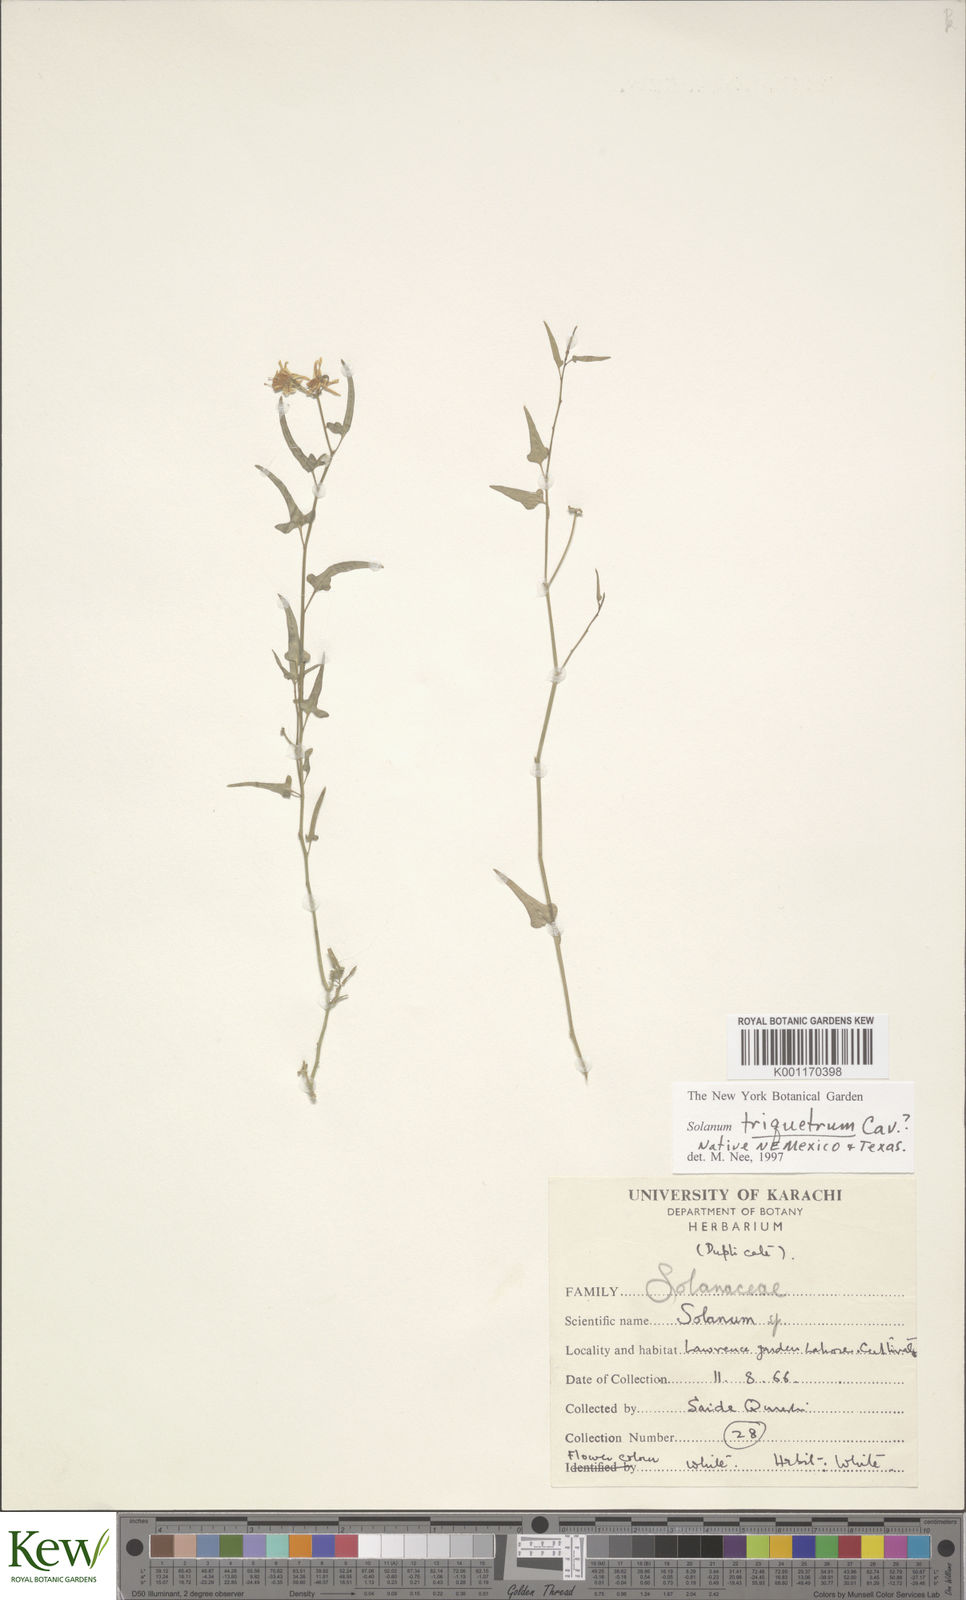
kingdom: Plantae
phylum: Tracheophyta
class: Magnoliopsida
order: Solanales
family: Solanaceae
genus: Solanum
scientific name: Solanum triquetrum
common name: Texas nightshade
